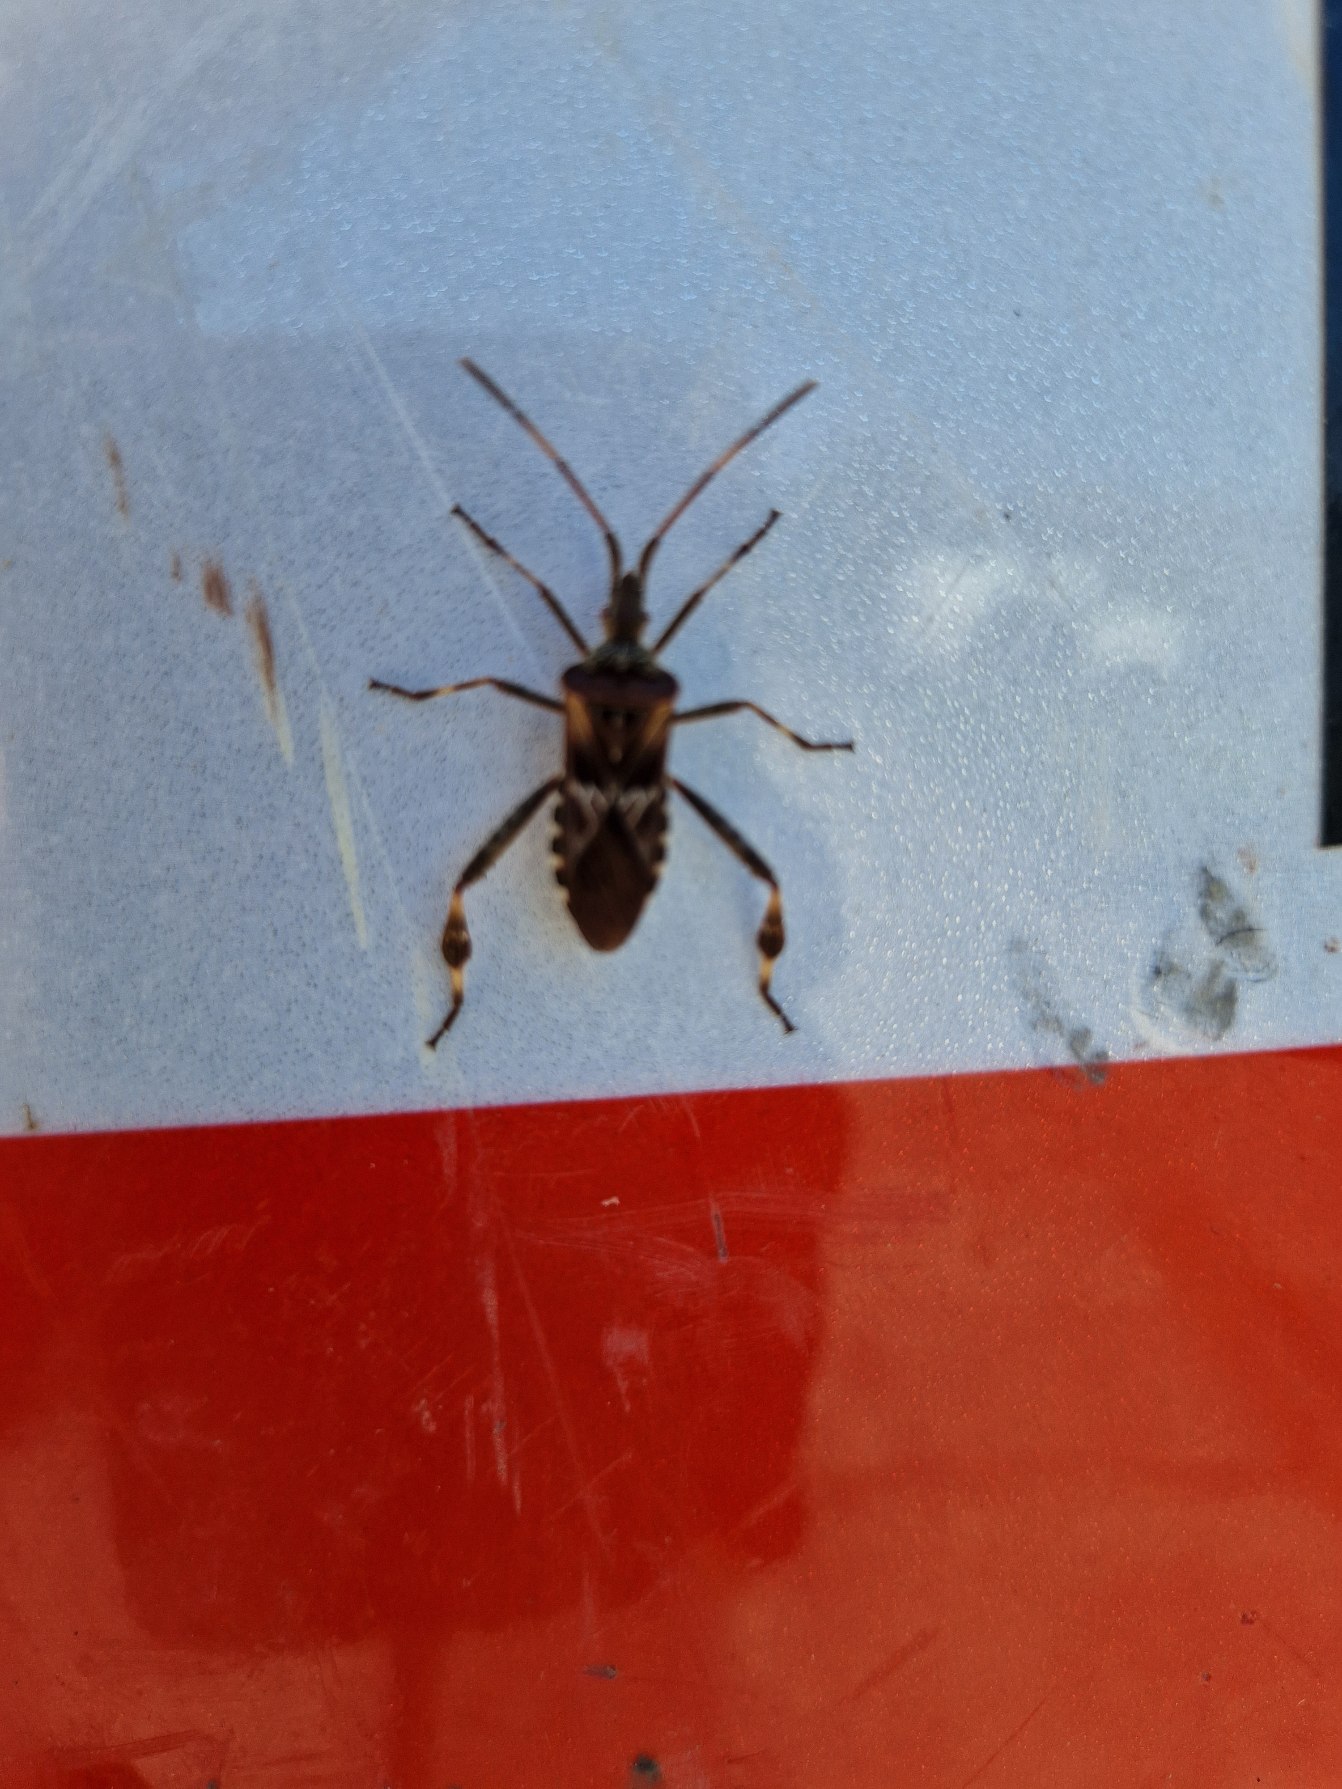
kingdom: Animalia
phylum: Arthropoda
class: Insecta
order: Hemiptera
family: Coreidae
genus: Leptoglossus
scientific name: Leptoglossus occidentalis
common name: Amerikansk fyrretæge
